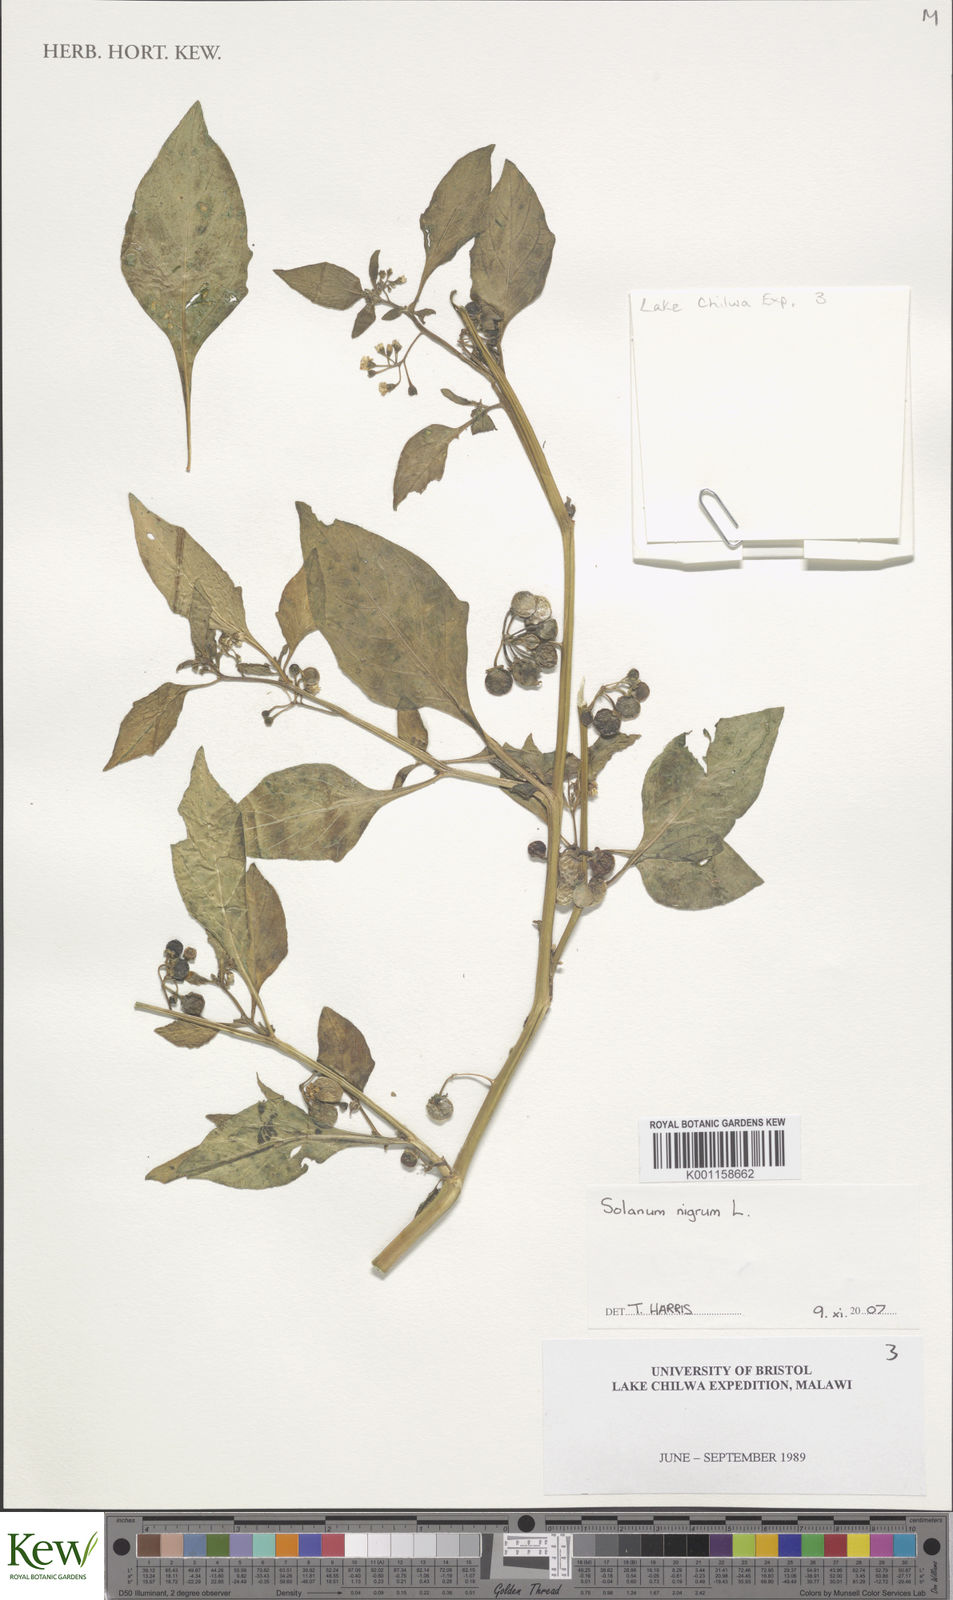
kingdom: Plantae
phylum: Tracheophyta
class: Magnoliopsida
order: Solanales
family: Solanaceae
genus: Solanum
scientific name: Solanum nigrum
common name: Black nightshade
